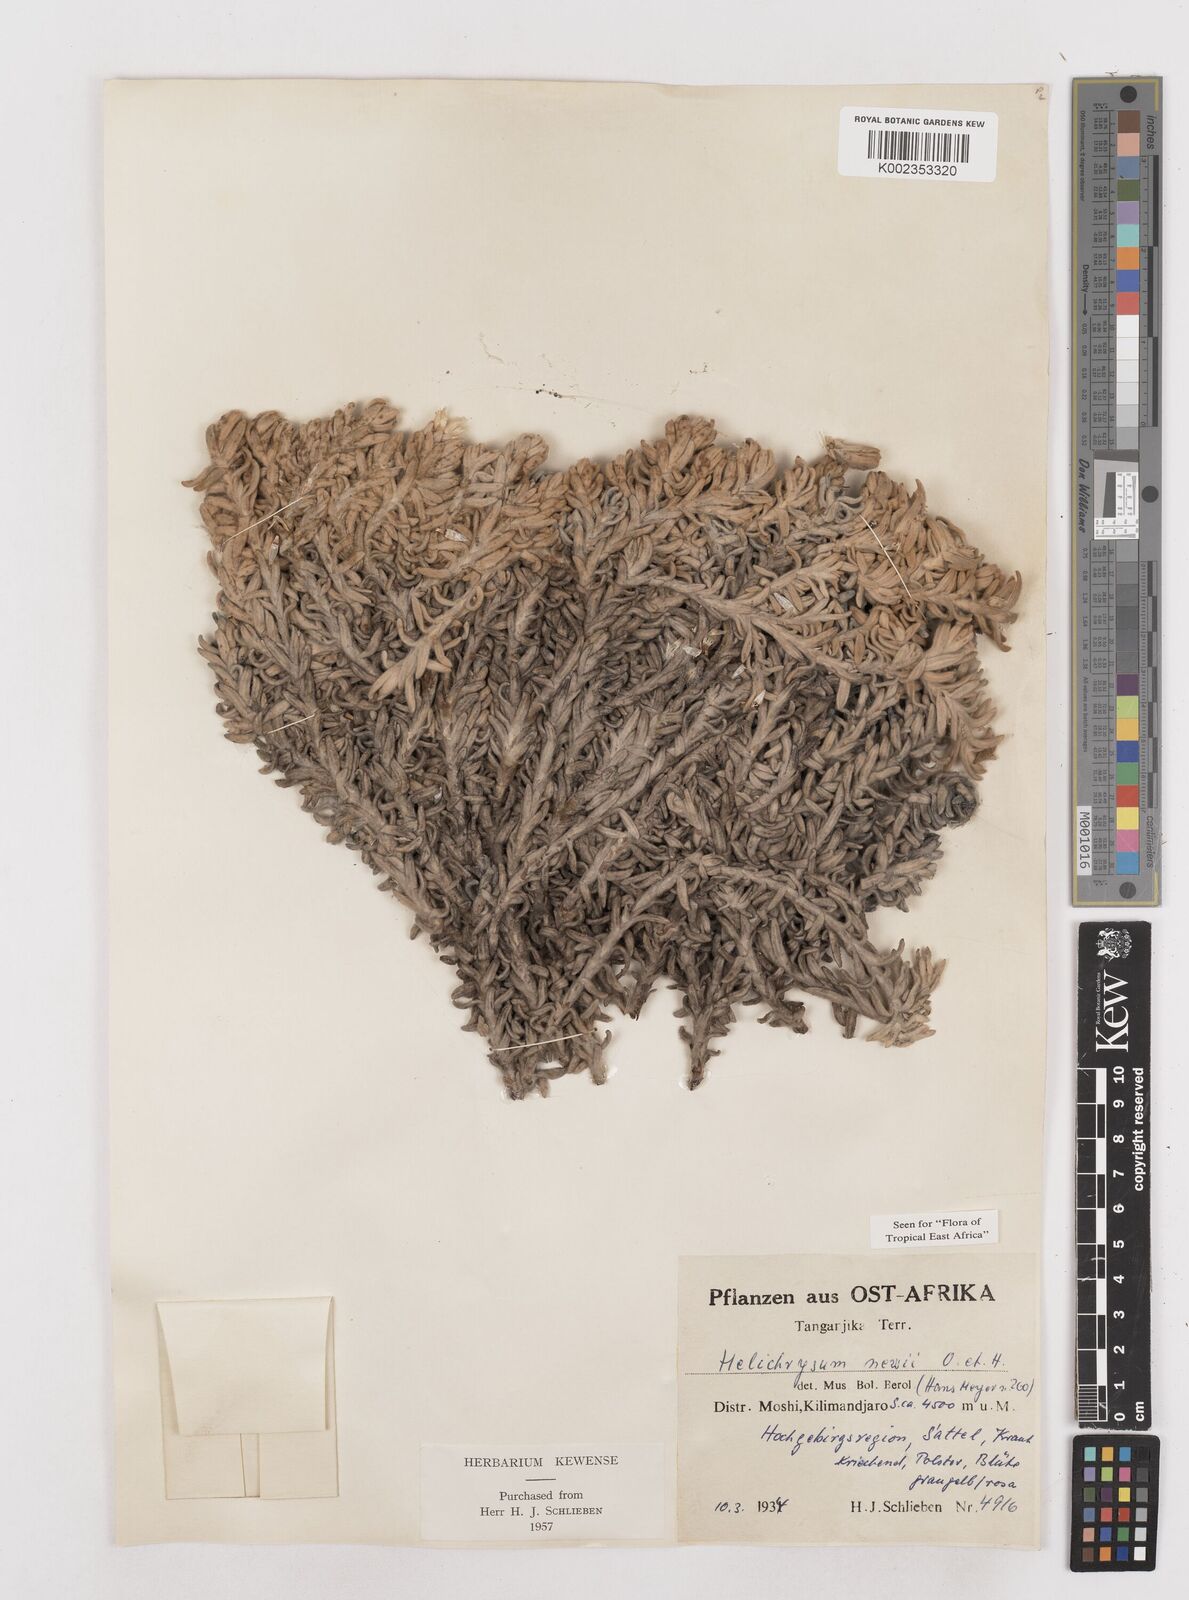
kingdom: Plantae
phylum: Tracheophyta
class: Magnoliopsida
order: Asterales
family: Asteraceae
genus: Helichrysum
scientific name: Helichrysum newii
